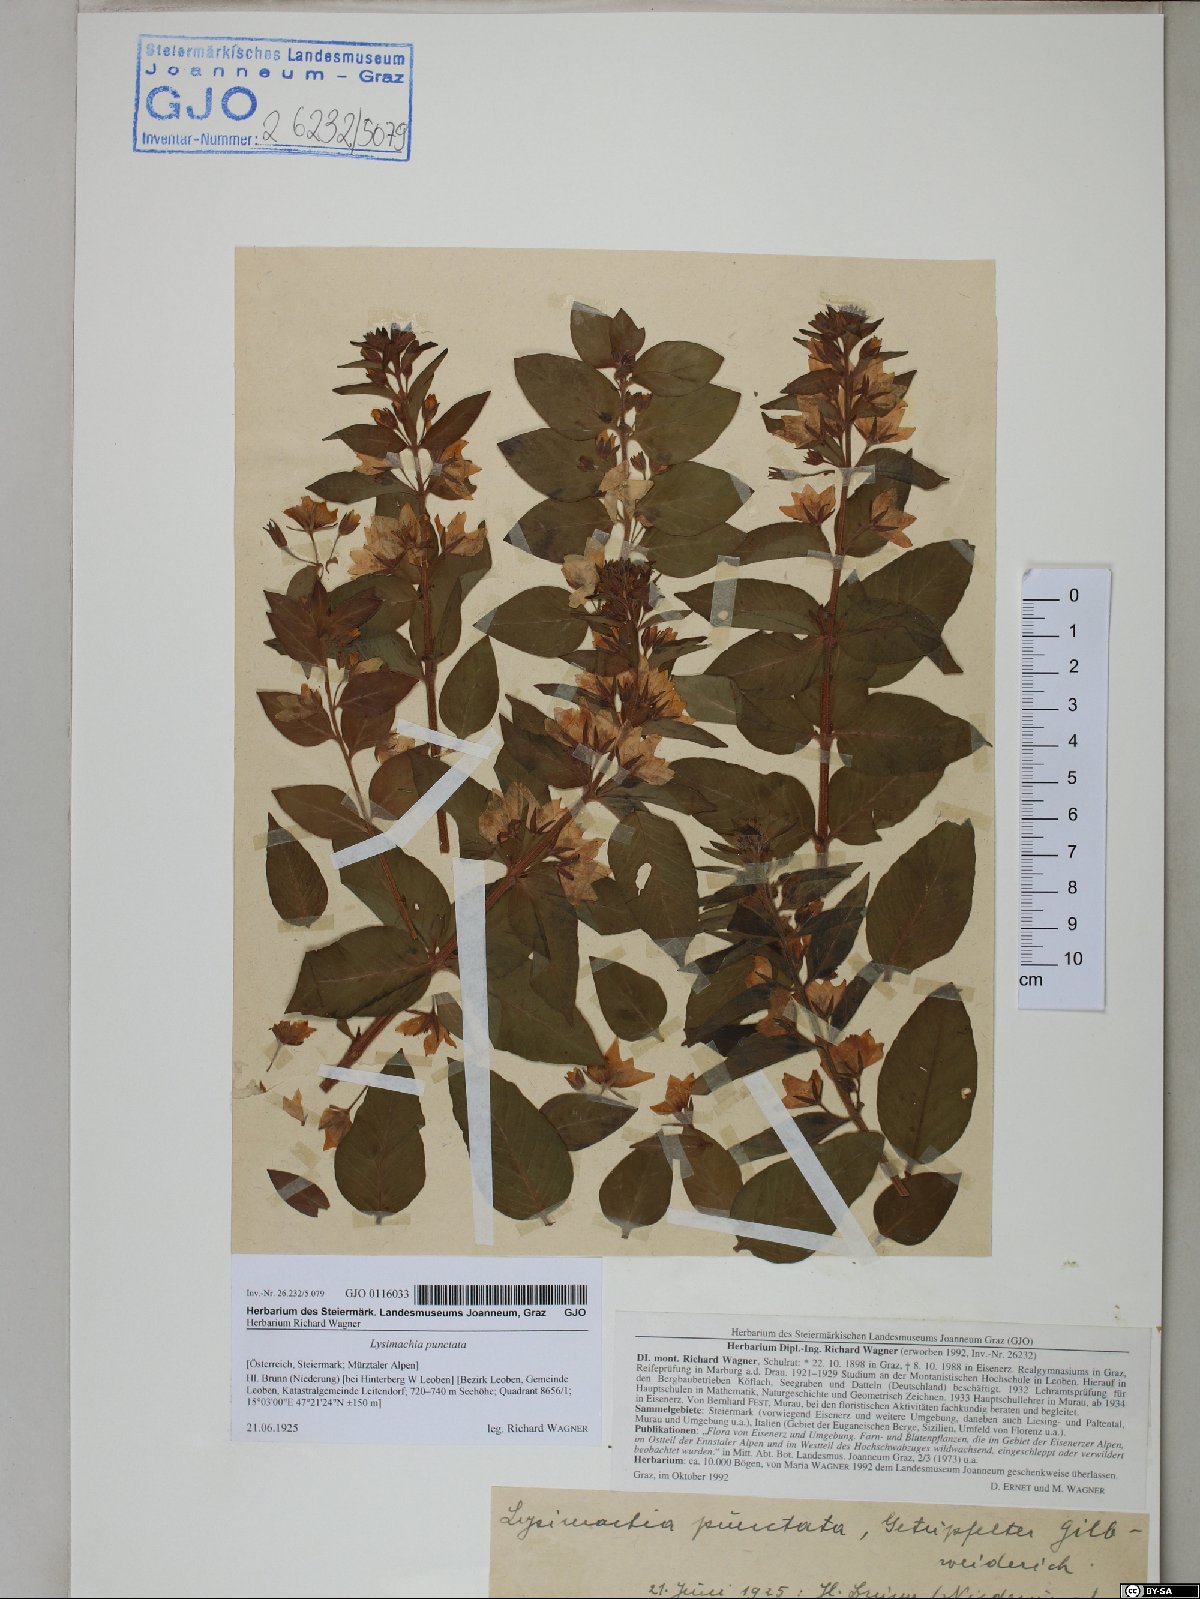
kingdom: Plantae
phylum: Tracheophyta
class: Magnoliopsida
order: Ericales
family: Primulaceae
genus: Lysimachia
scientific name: Lysimachia punctata
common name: Dotted loosestrife
